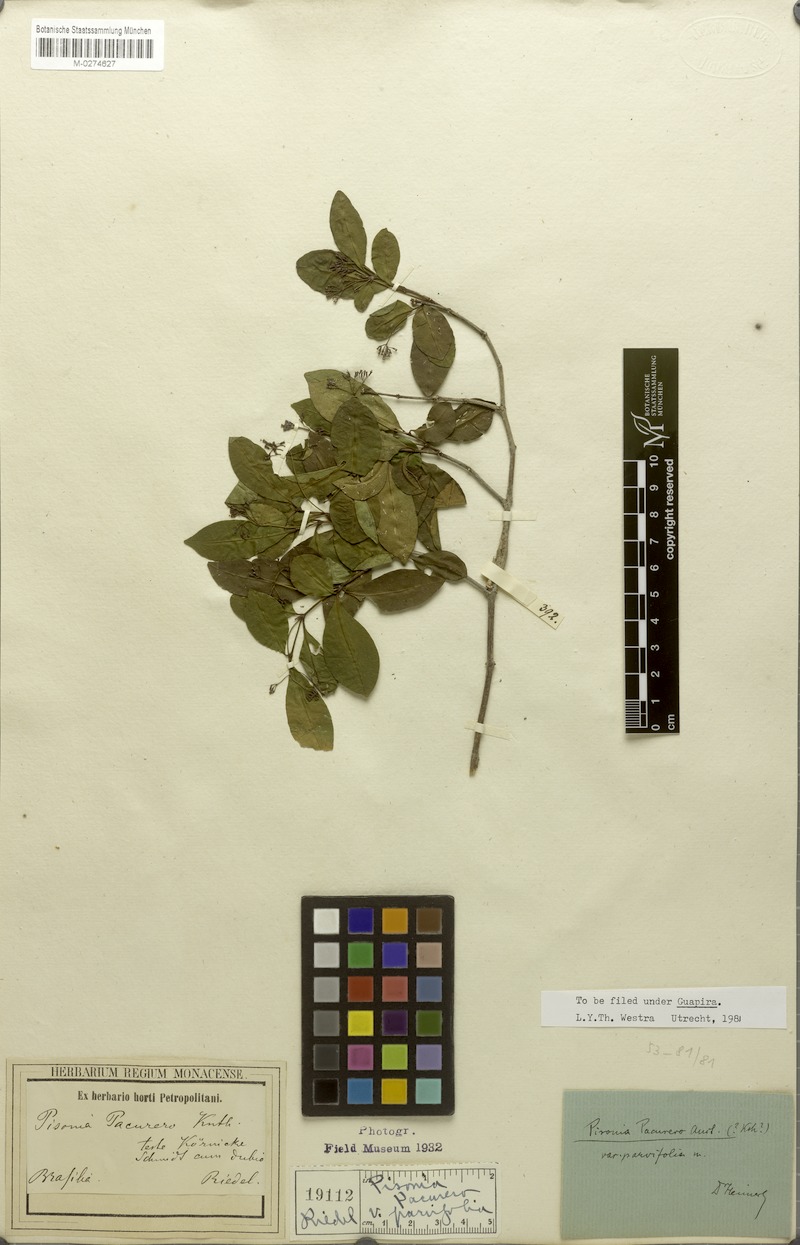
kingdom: Plantae
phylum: Tracheophyta
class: Magnoliopsida
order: Caryophyllales
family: Nyctaginaceae
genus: Guapira
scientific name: Guapira pacurero
